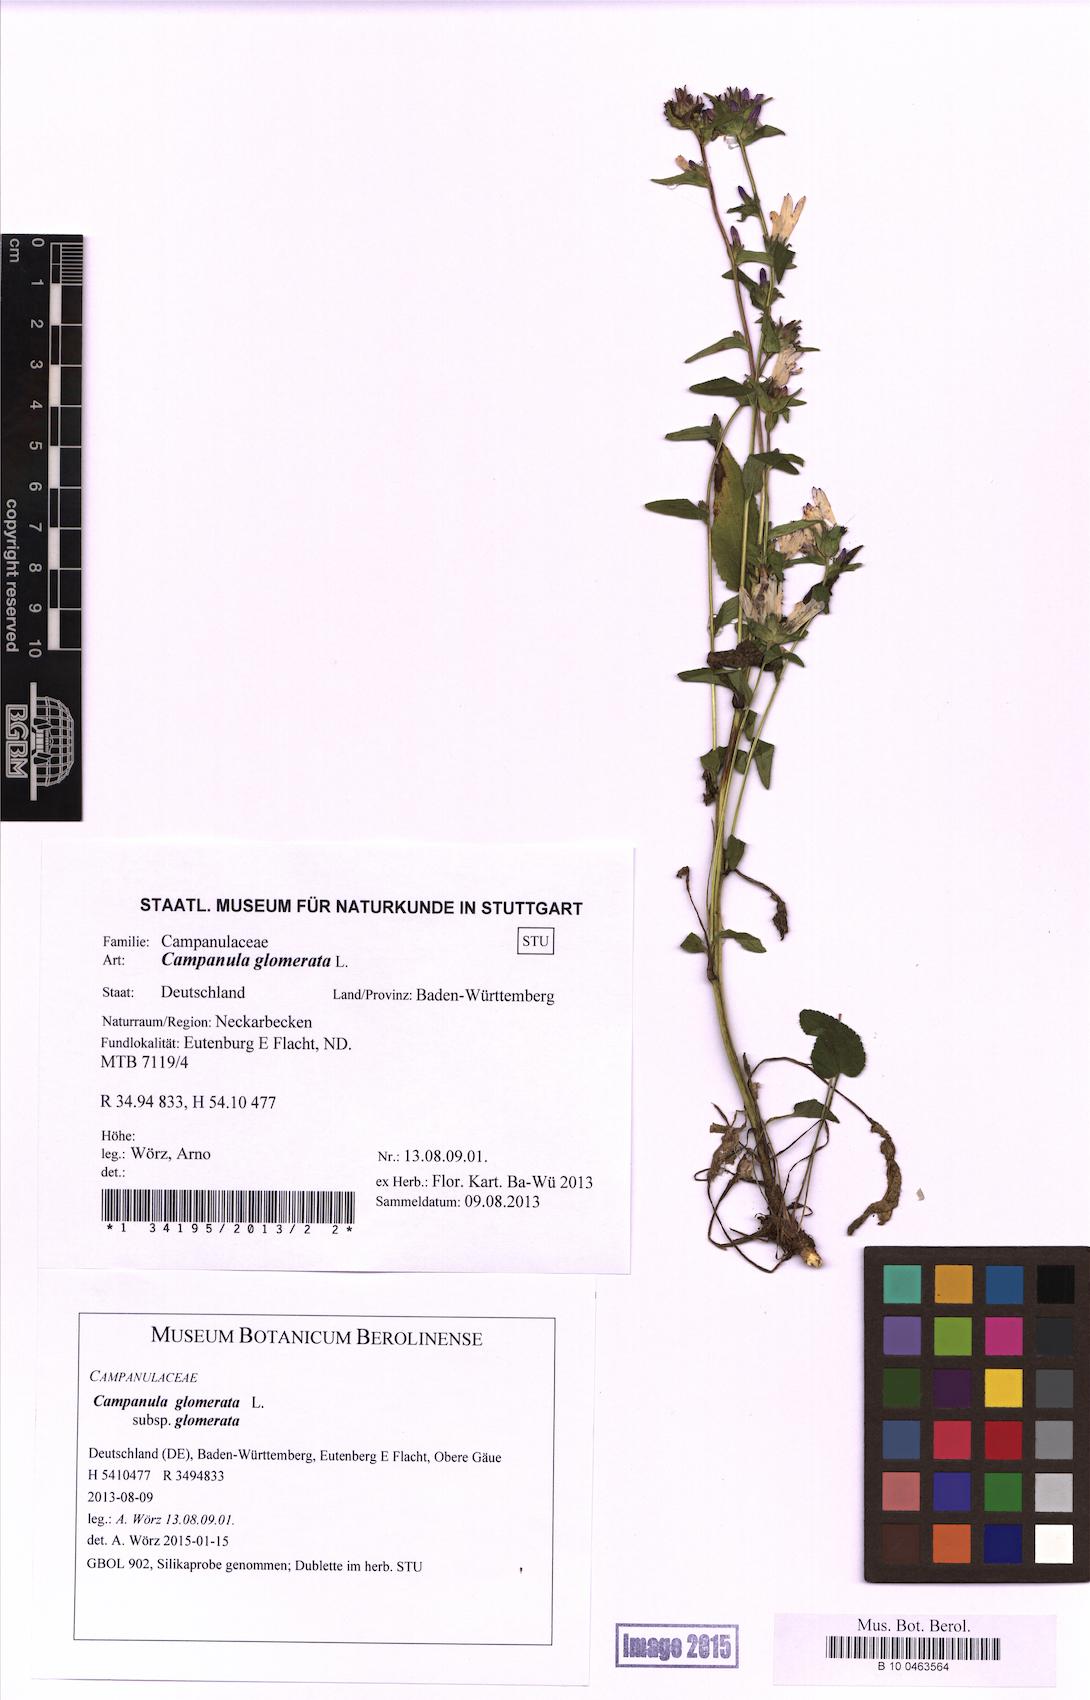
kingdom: Plantae
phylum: Tracheophyta
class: Magnoliopsida
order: Asterales
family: Campanulaceae
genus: Campanula
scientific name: Campanula glomerata
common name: Clustered bellflower
